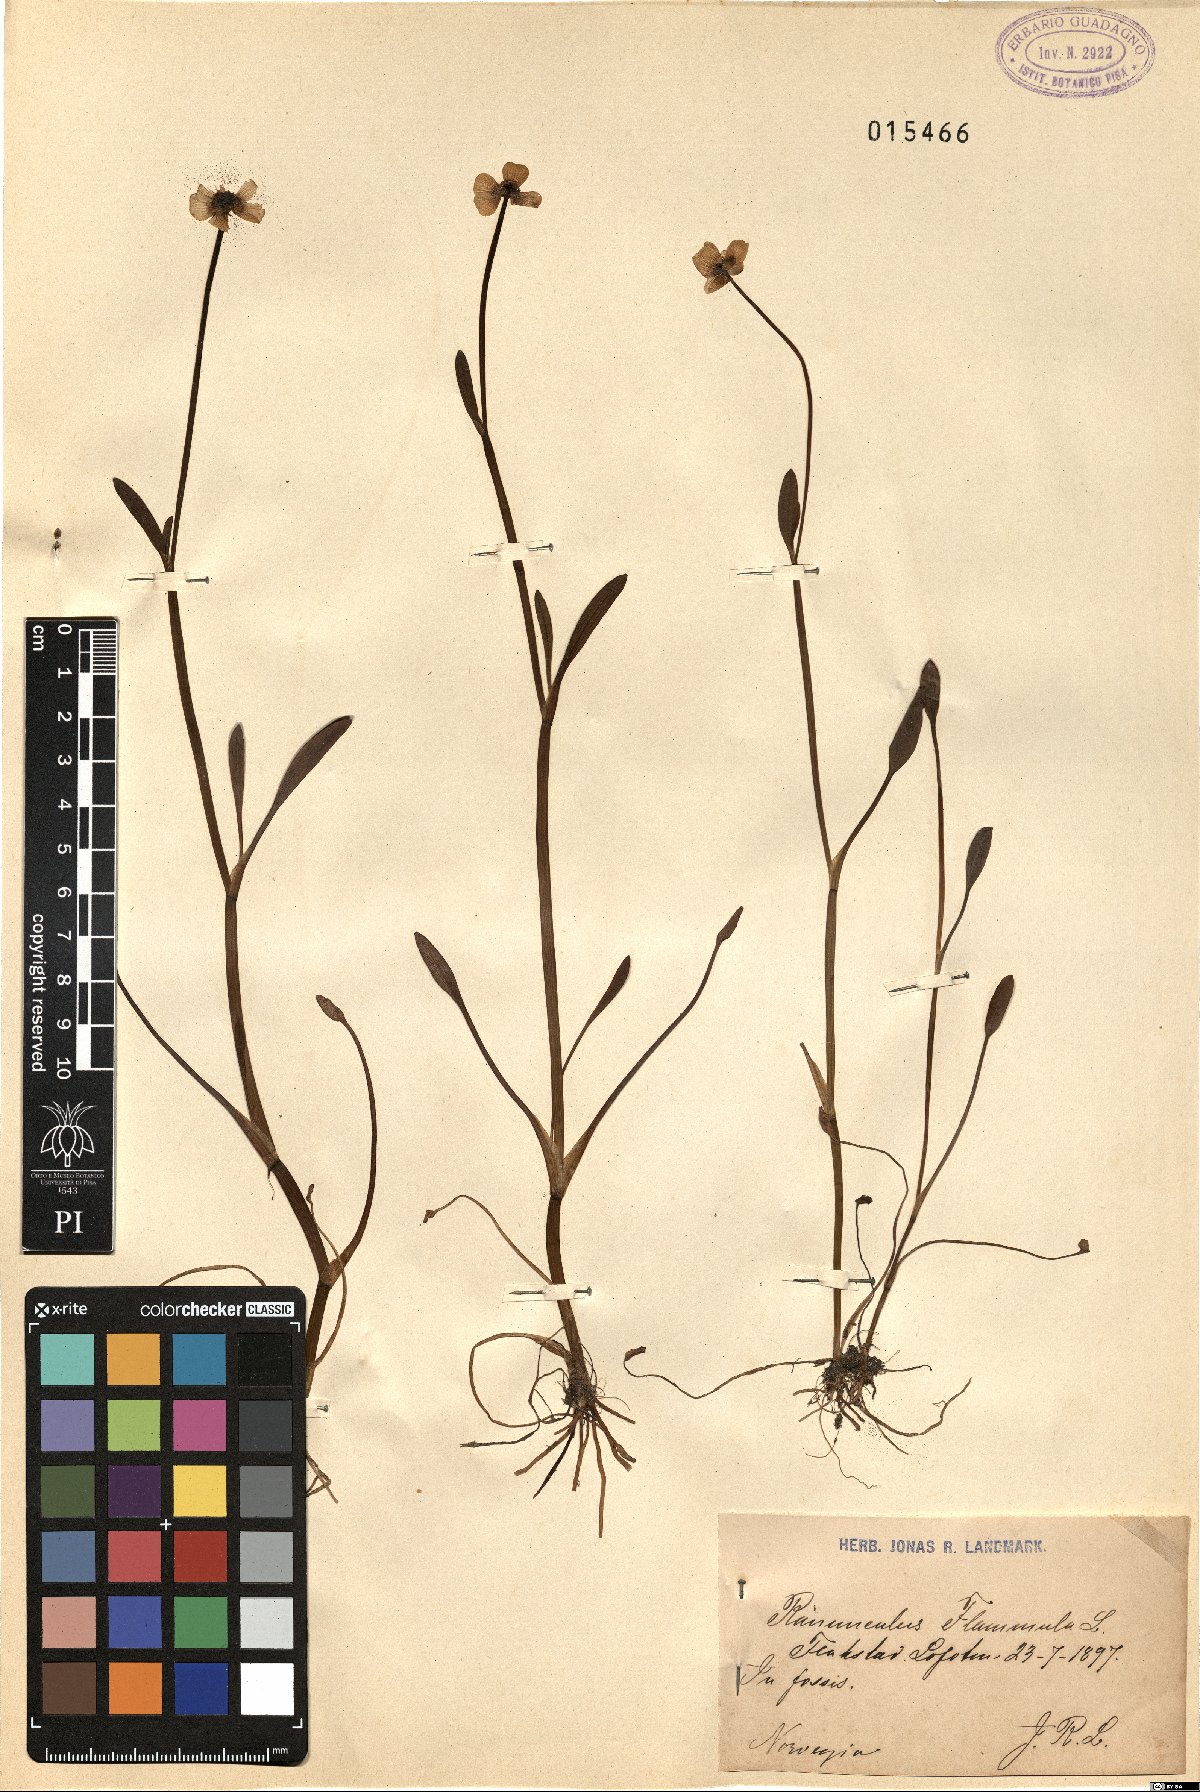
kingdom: Plantae
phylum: Tracheophyta
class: Magnoliopsida
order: Ranunculales
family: Ranunculaceae
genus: Ranunculus
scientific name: Ranunculus flammula
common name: Lesser spearwort
